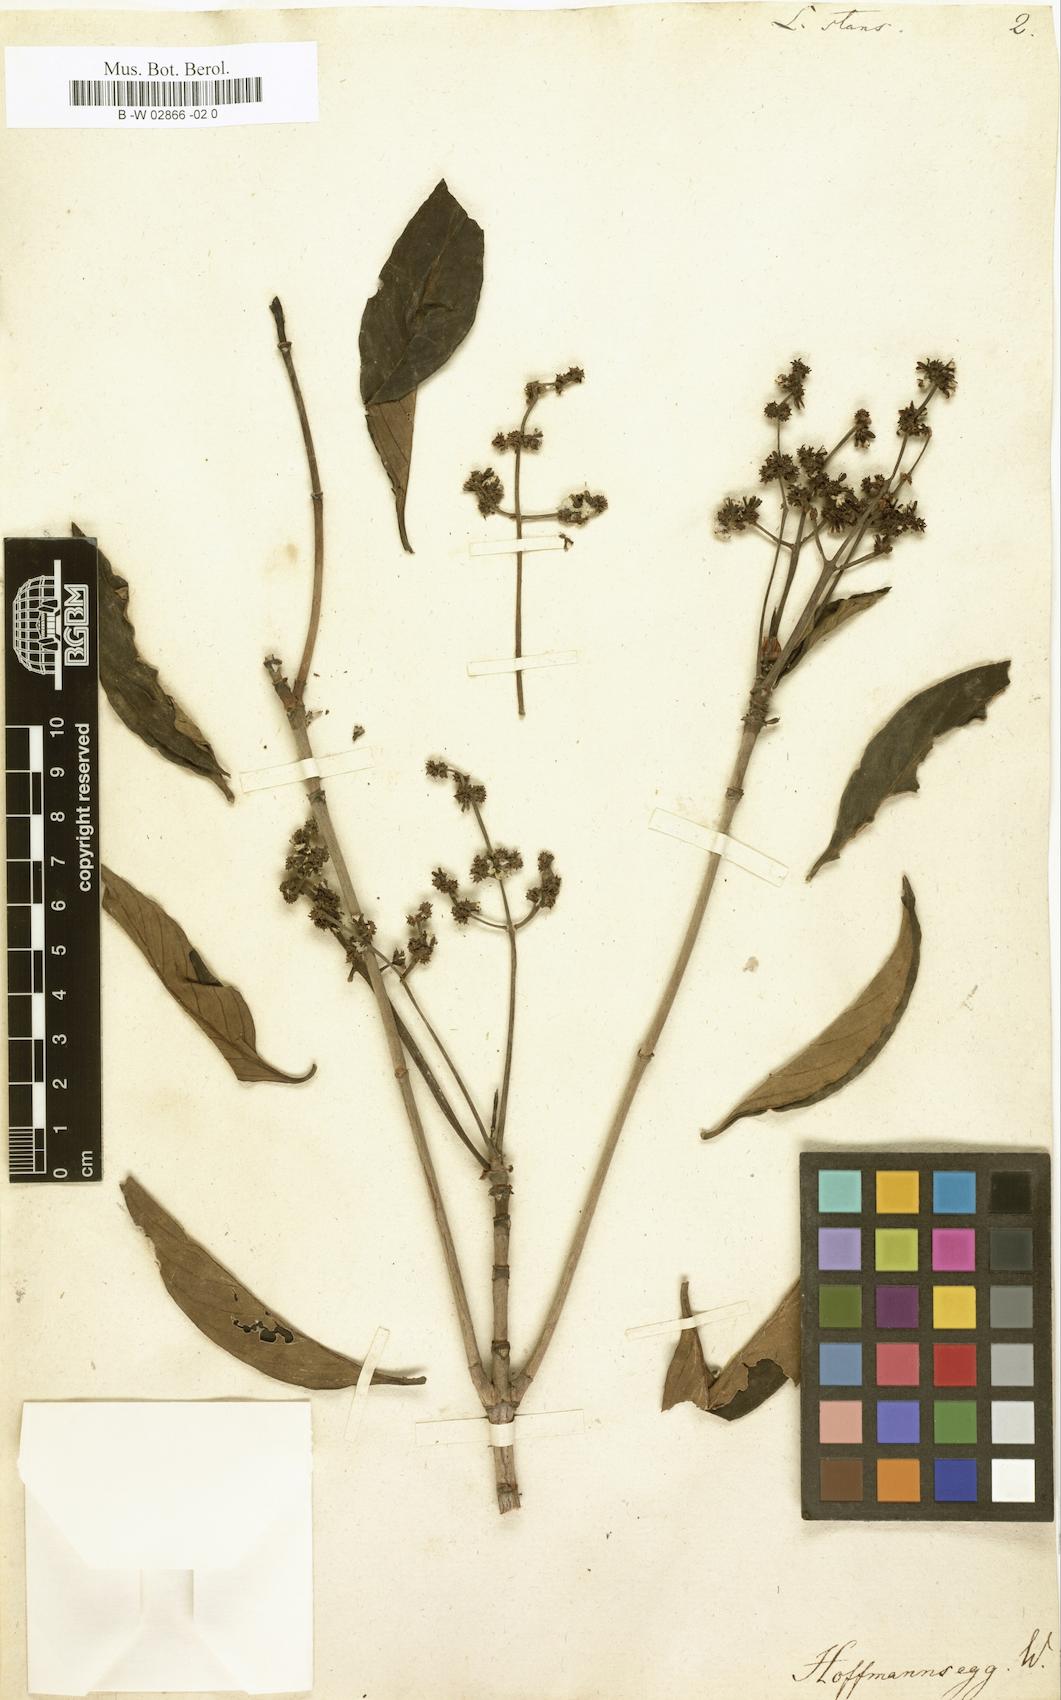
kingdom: Plantae
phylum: Tracheophyta
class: Magnoliopsida
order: Gentianales
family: Loganiaceae
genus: Strychnos
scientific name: Strychnos Lasiostoma stans
